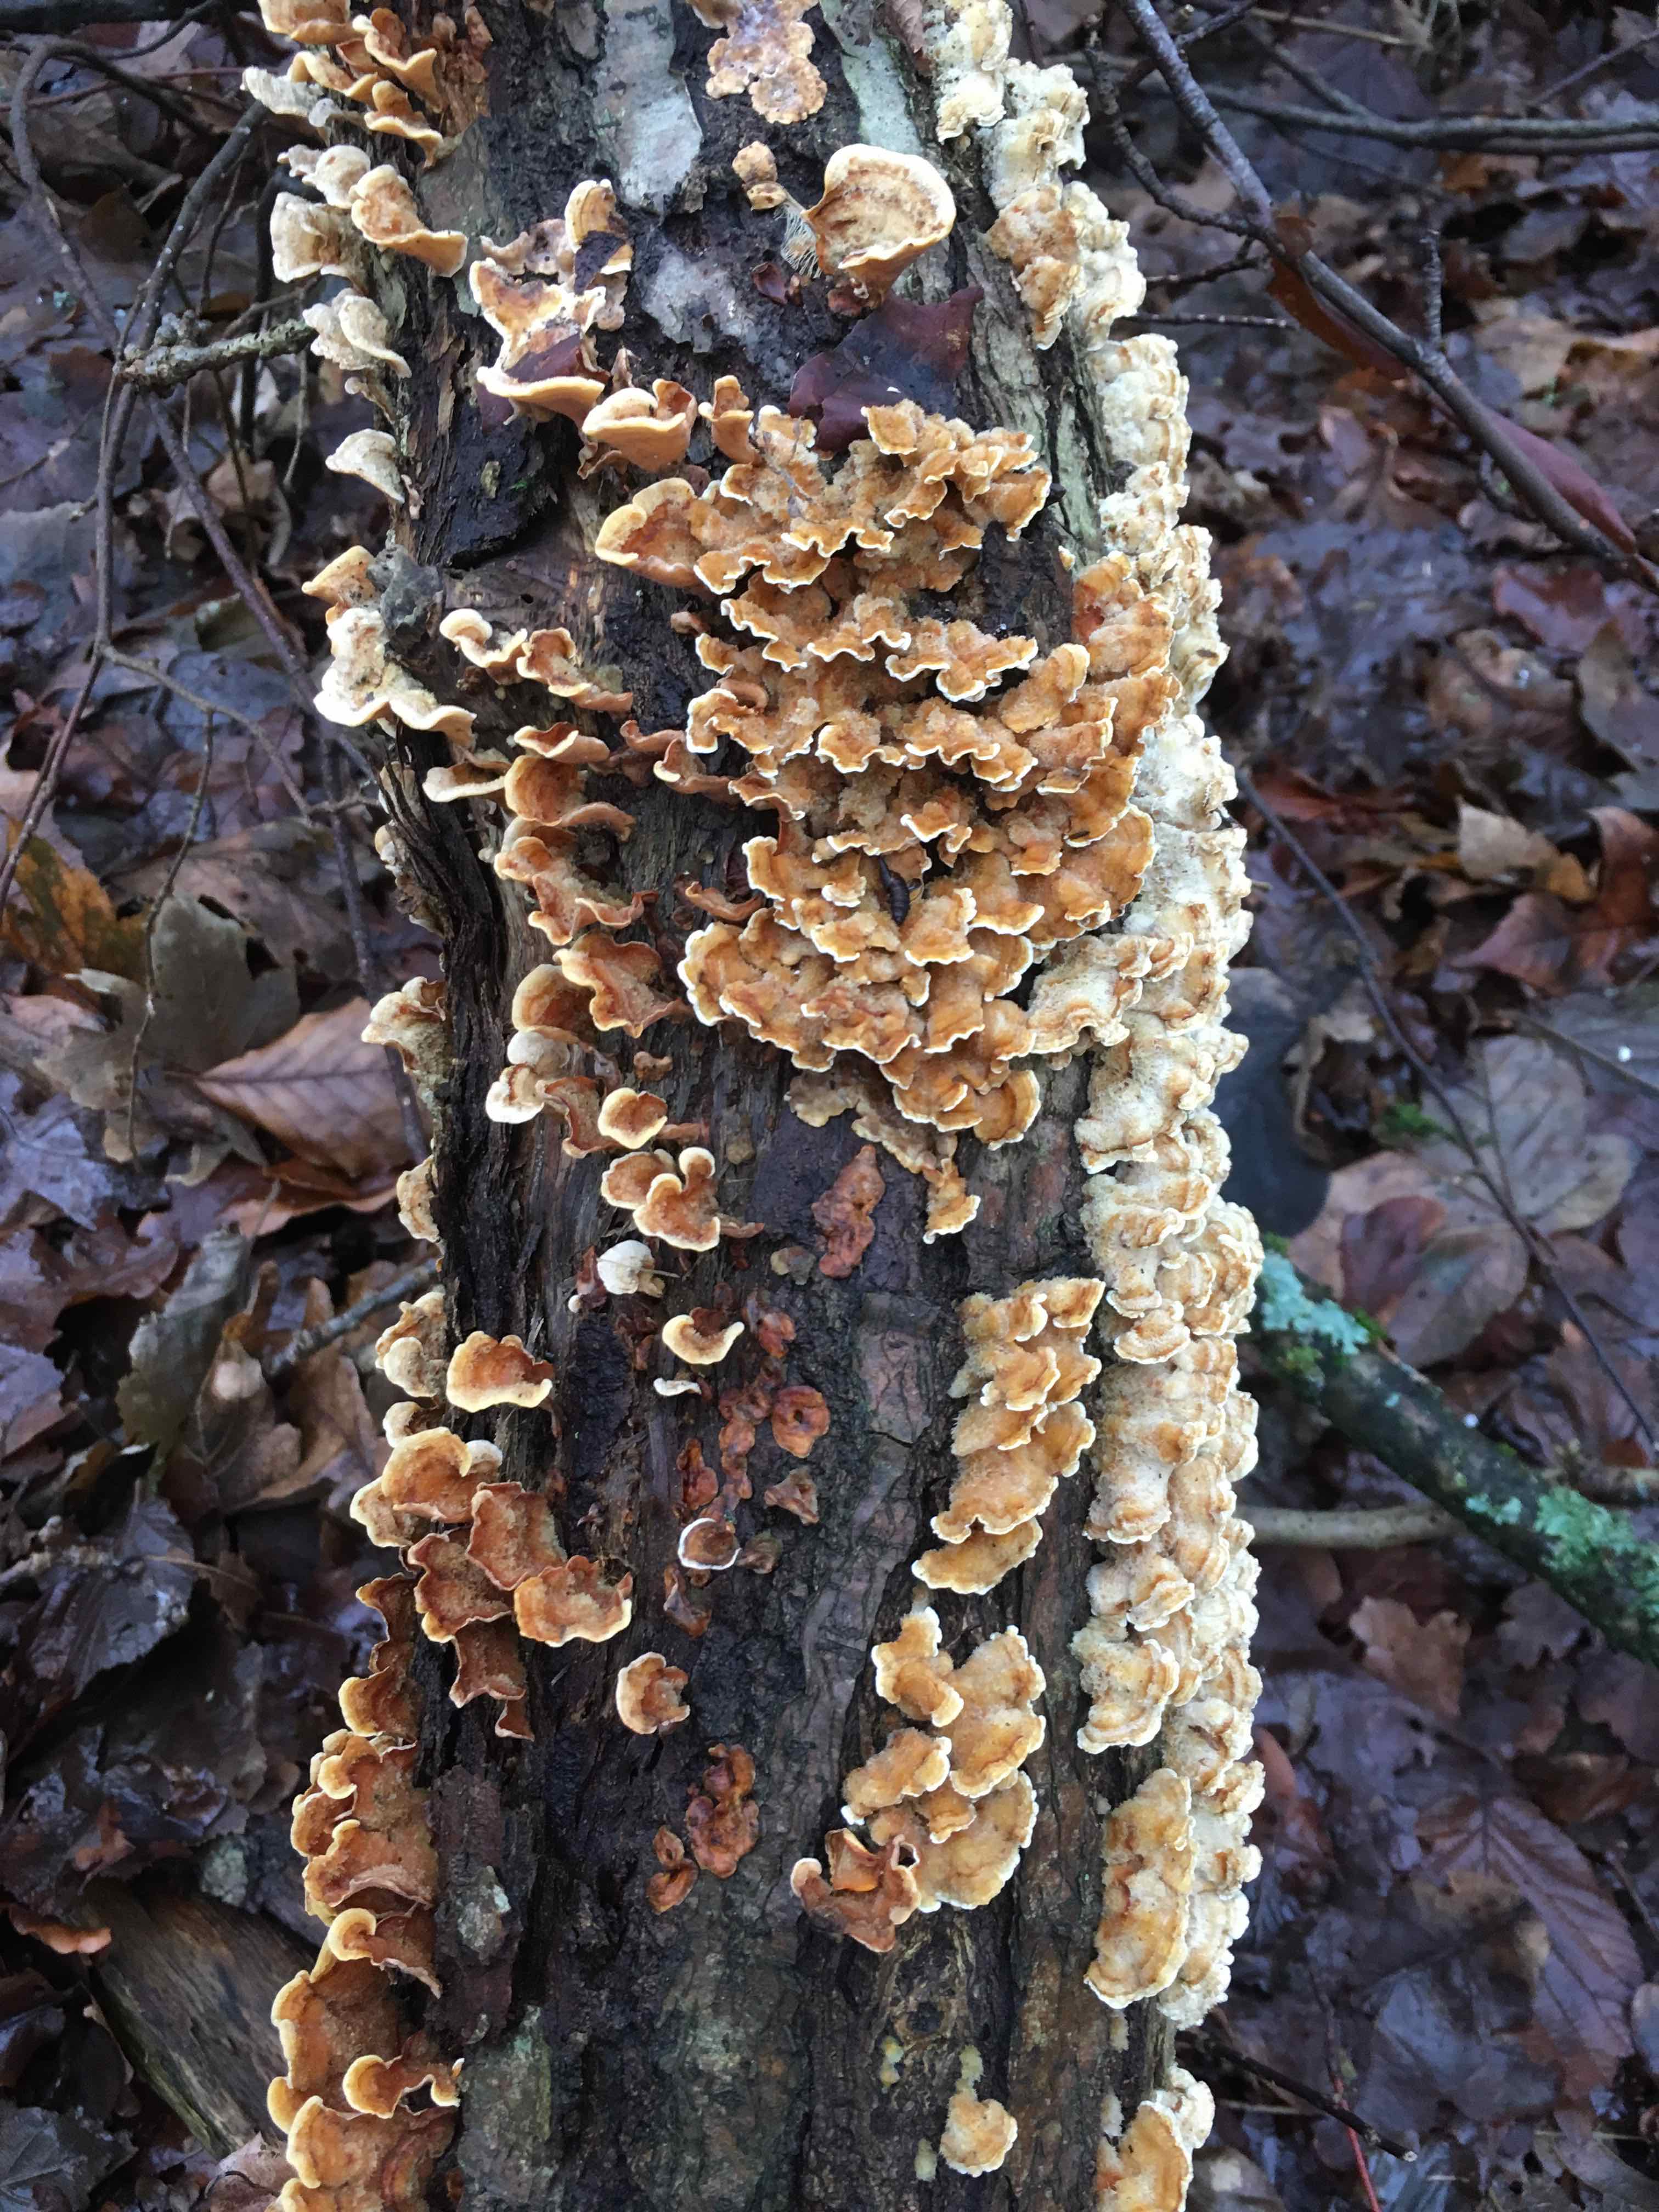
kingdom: Fungi
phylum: Basidiomycota
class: Agaricomycetes
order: Russulales
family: Stereaceae
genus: Stereum
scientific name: Stereum hirsutum
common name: håret lædersvamp
